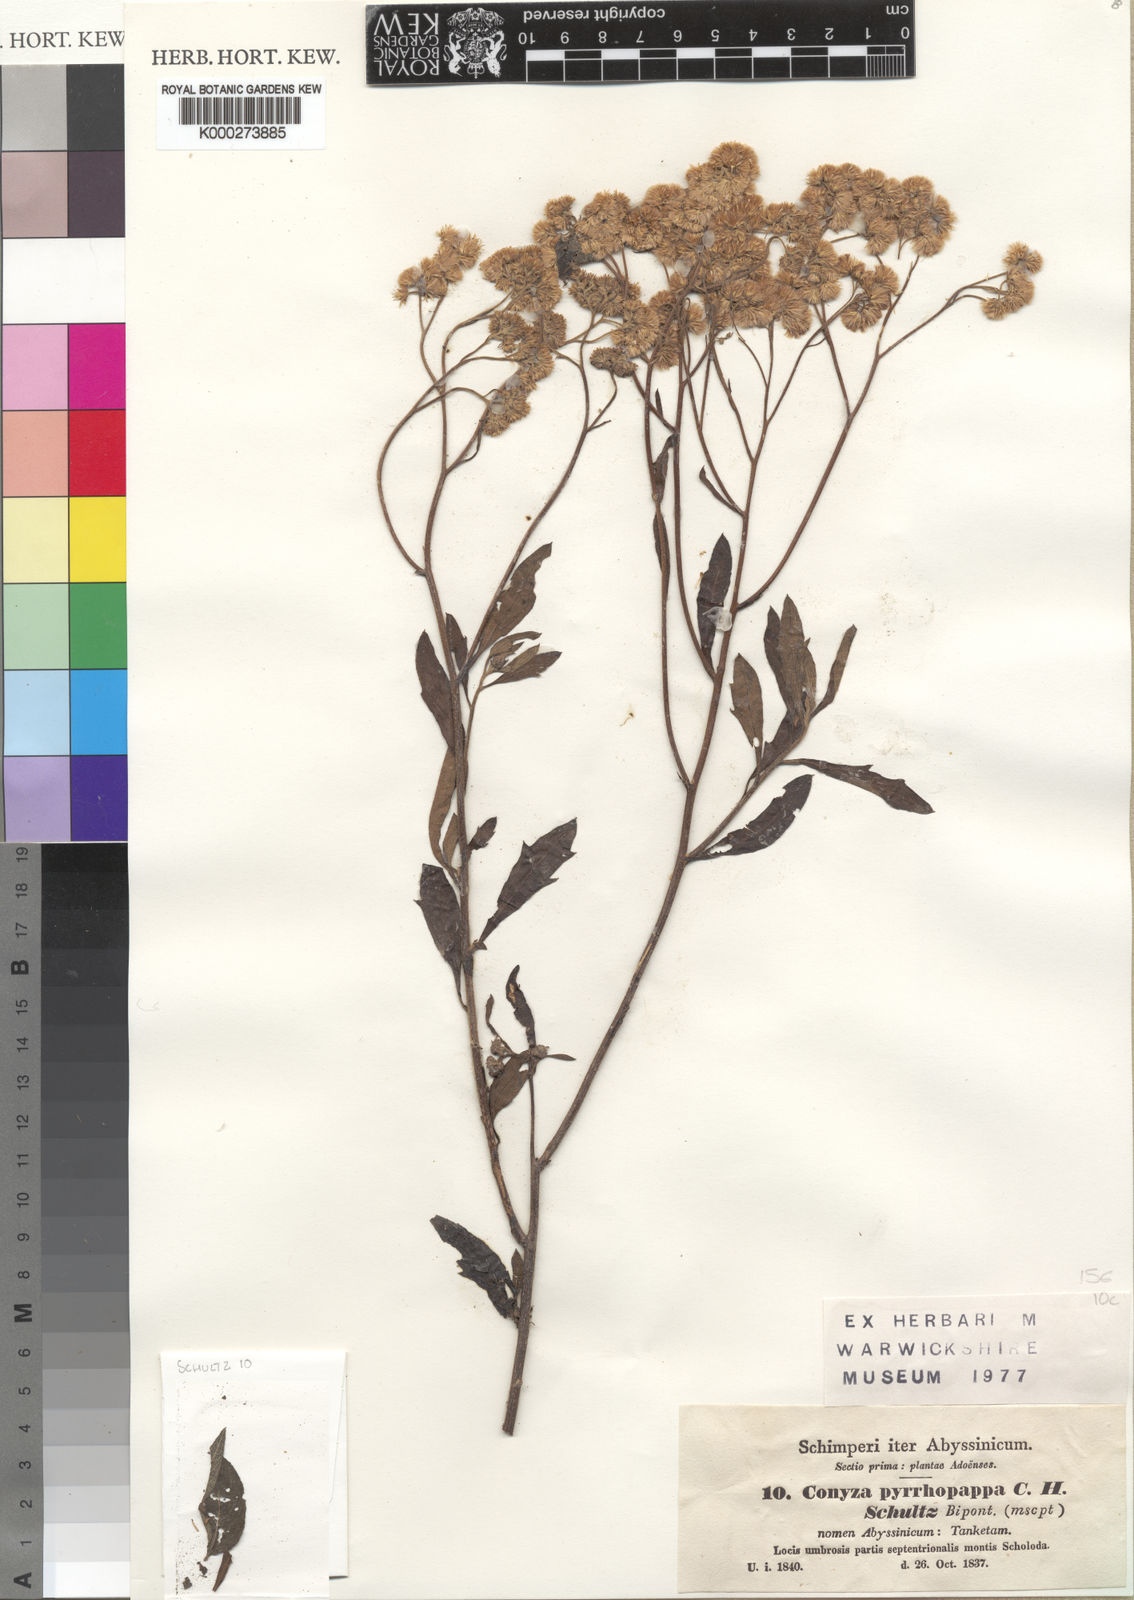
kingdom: Plantae
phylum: Tracheophyta
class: Magnoliopsida
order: Asterales
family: Asteraceae
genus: Microglossa
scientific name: Microglossa pyrrhopappa
